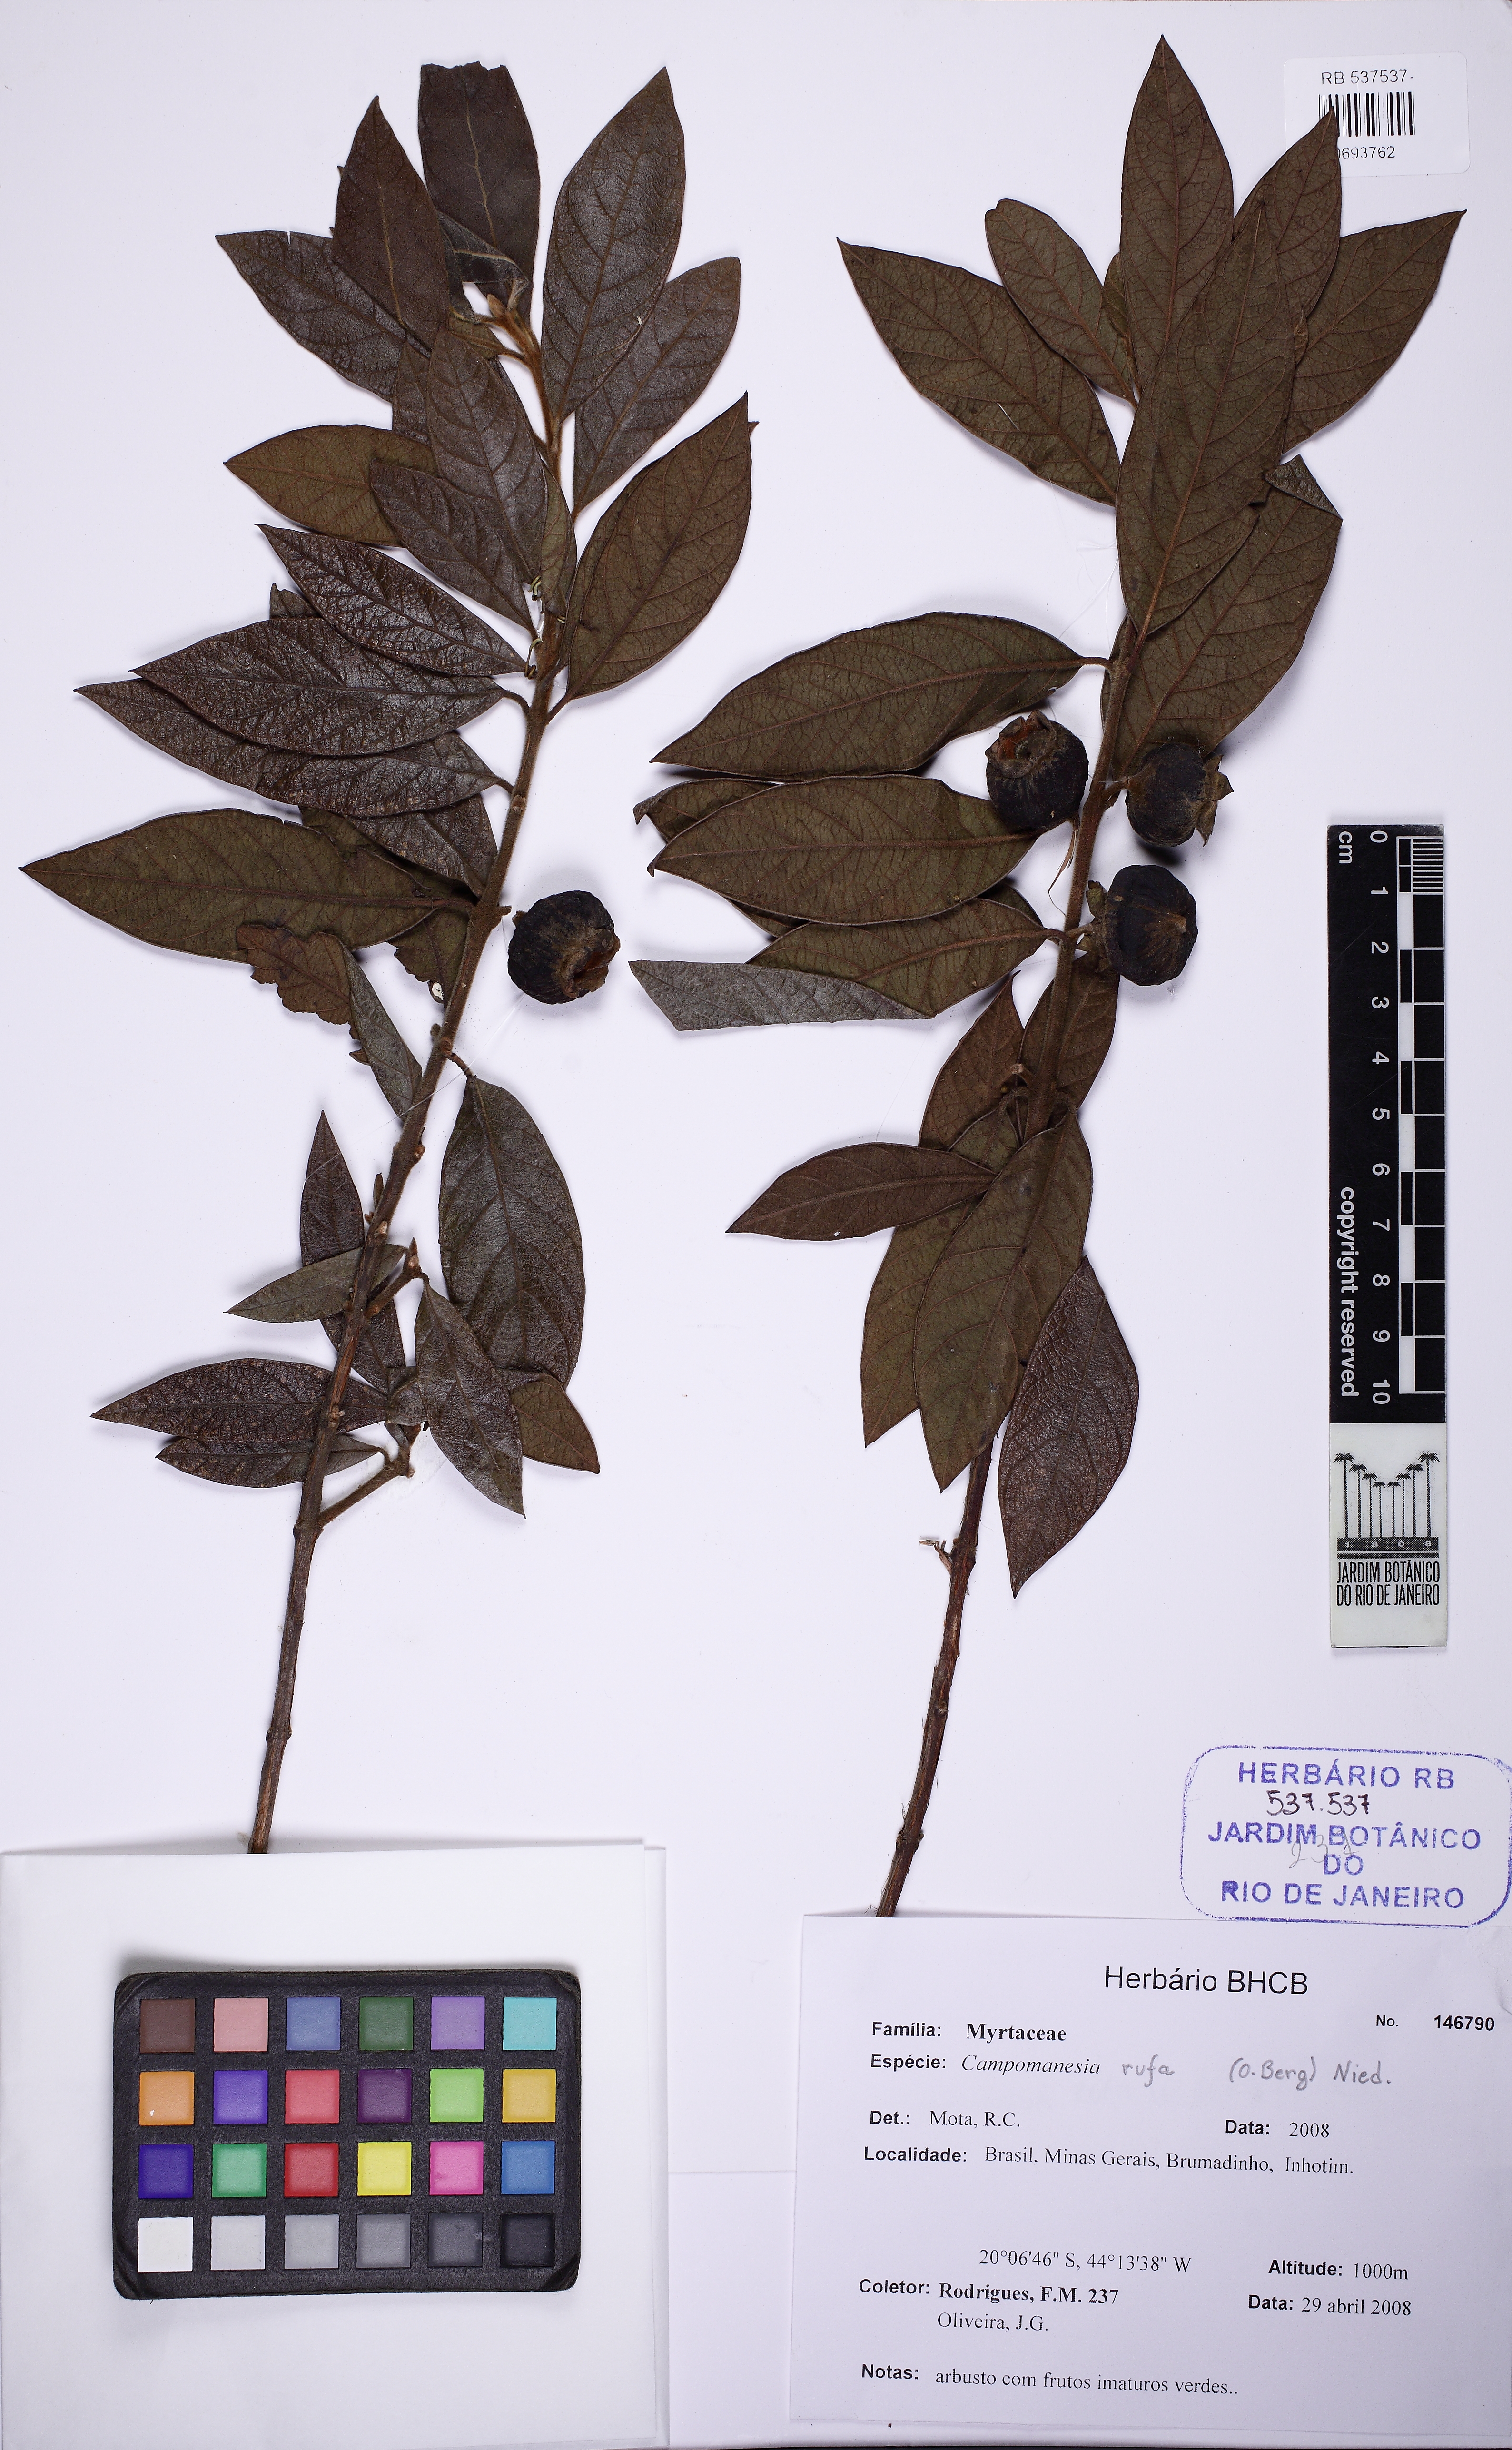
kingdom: Plantae
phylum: Tracheophyta
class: Magnoliopsida
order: Myrtales
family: Myrtaceae
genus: Campomanesia
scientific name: Campomanesia rufa
